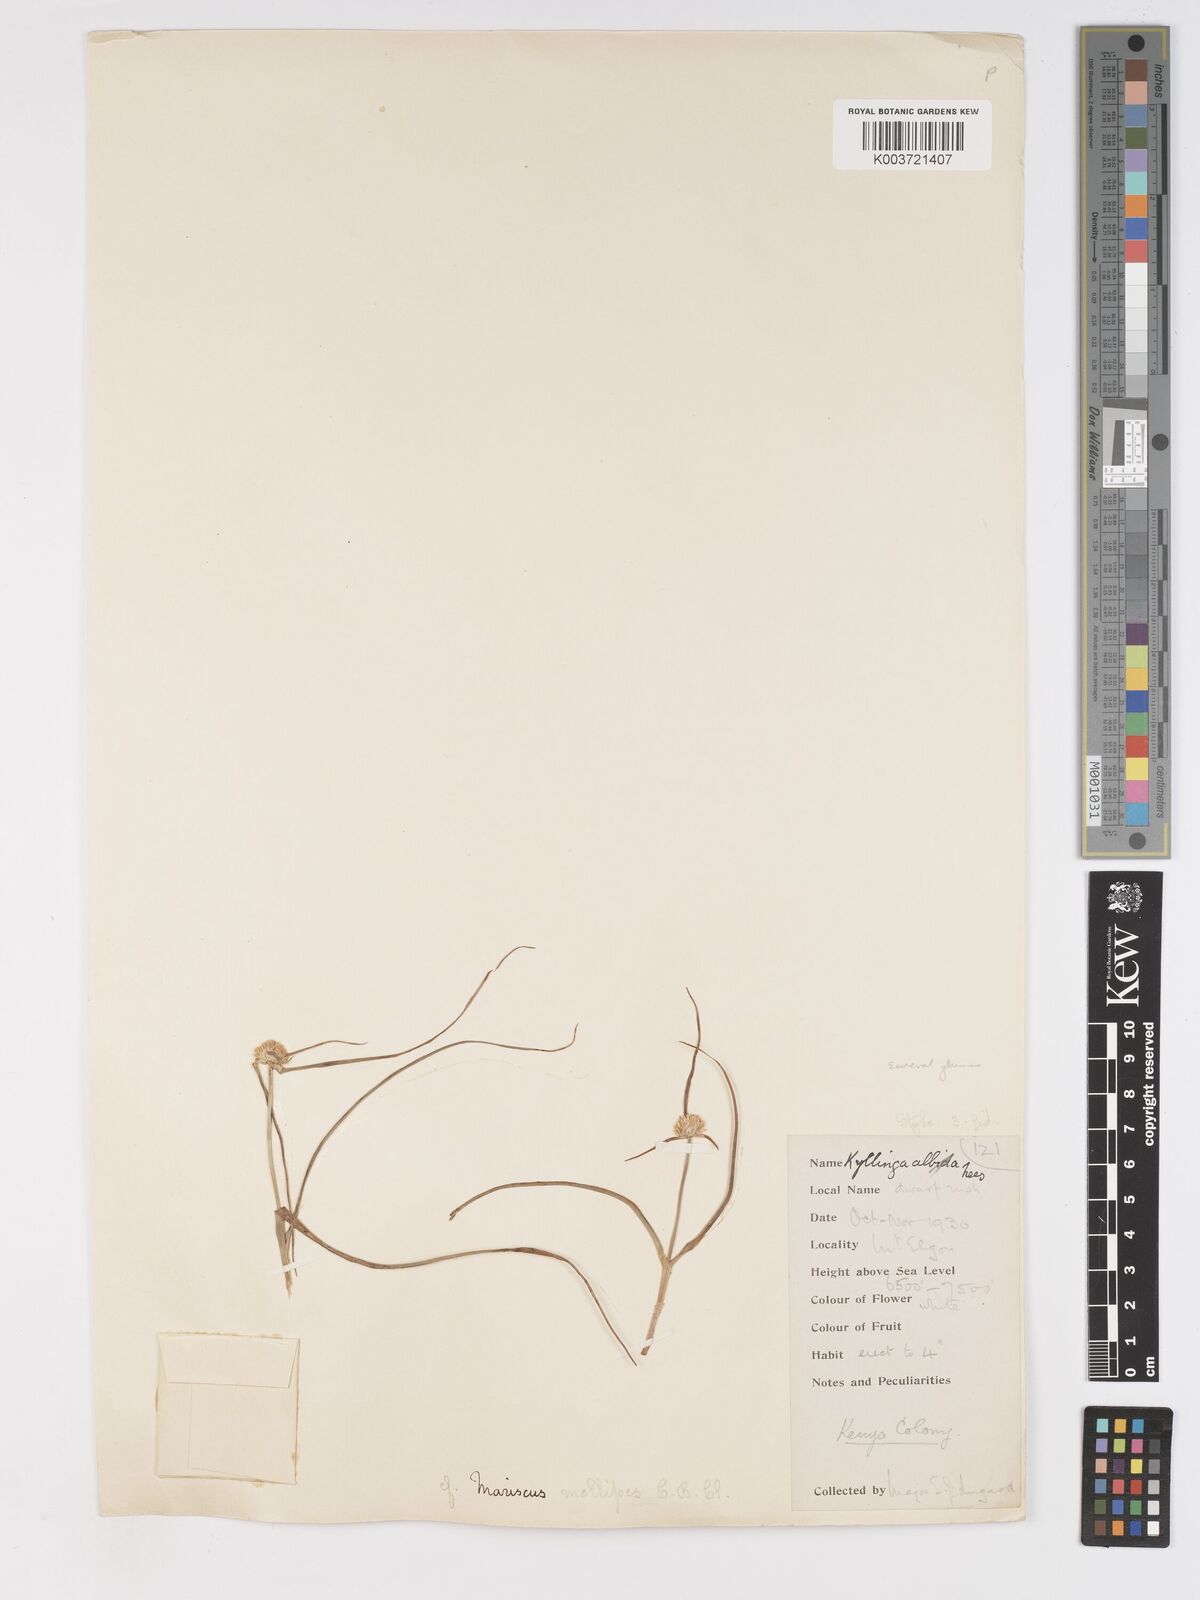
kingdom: Plantae
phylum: Tracheophyta
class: Liliopsida
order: Poales
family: Cyperaceae
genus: Cyperus
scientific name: Cyperus mollipes
